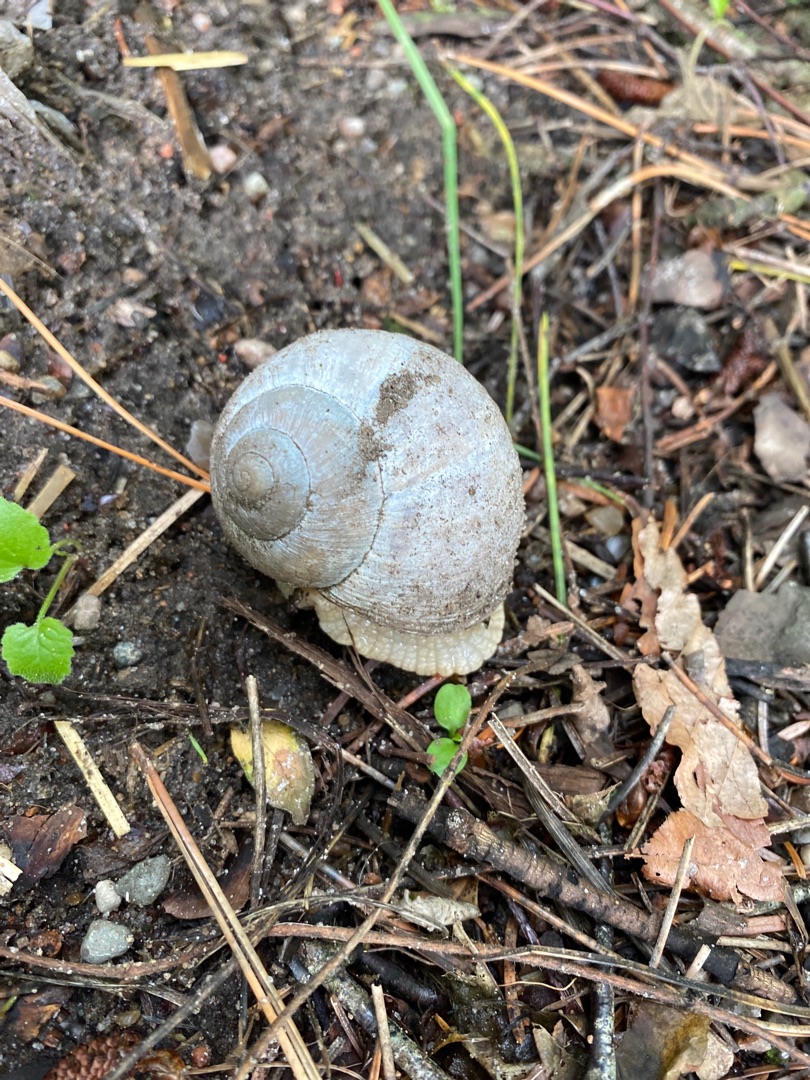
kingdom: Animalia
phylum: Mollusca
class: Gastropoda
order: Stylommatophora
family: Helicidae
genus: Helix
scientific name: Helix pomatia
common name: Vinbjergsnegl
